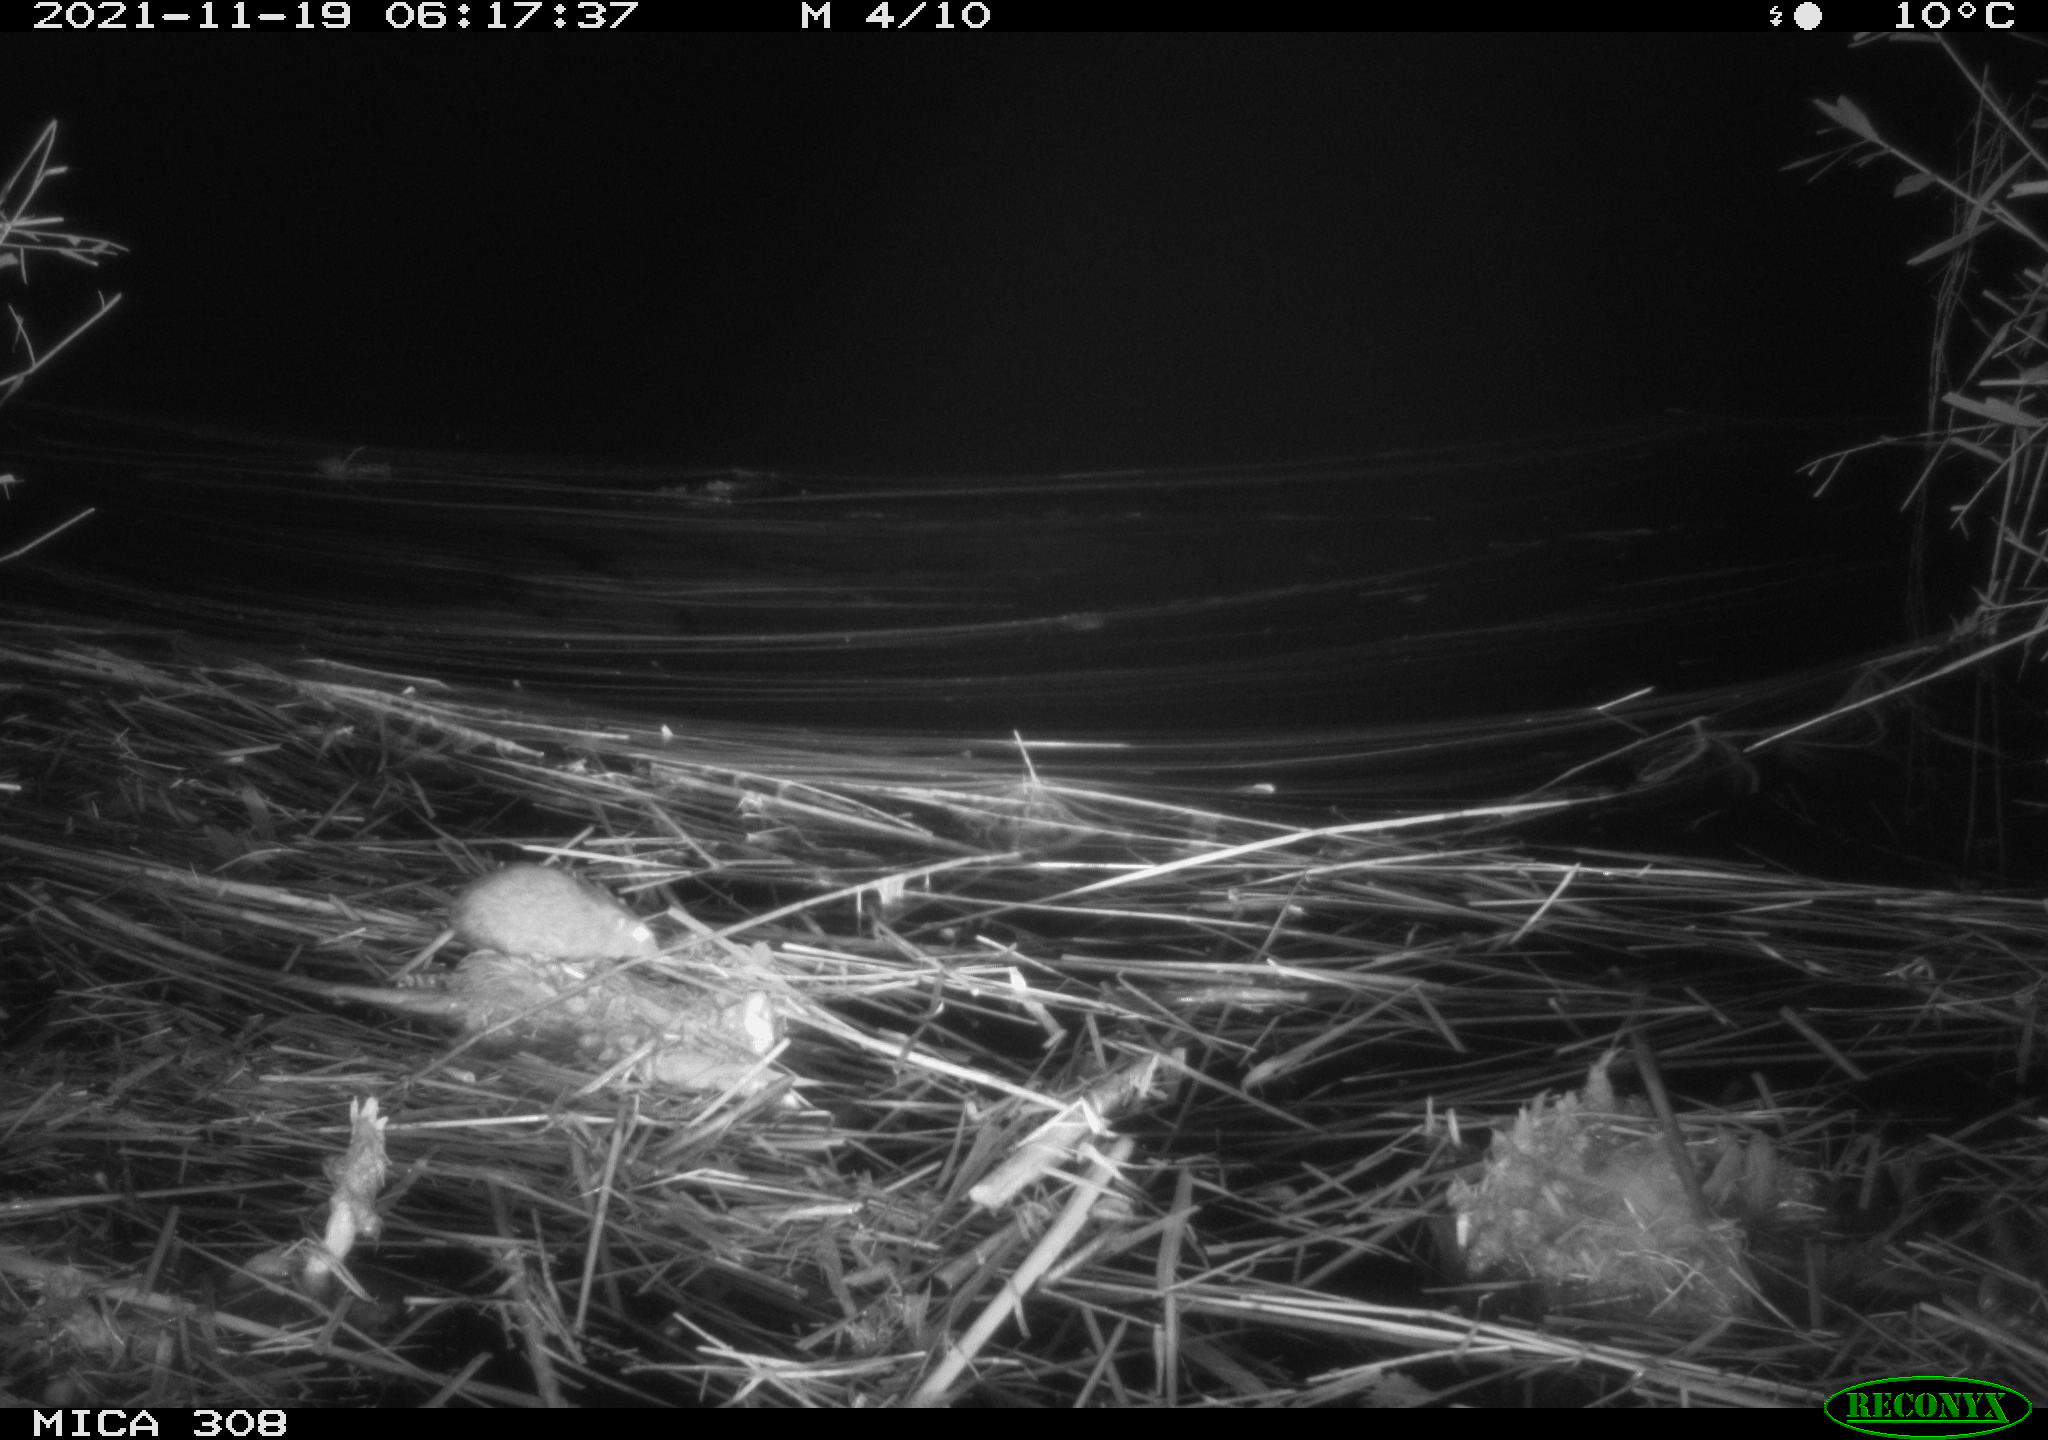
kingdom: Animalia
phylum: Chordata
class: Mammalia
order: Rodentia
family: Muridae
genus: Rattus
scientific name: Rattus norvegicus
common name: Brown rat
